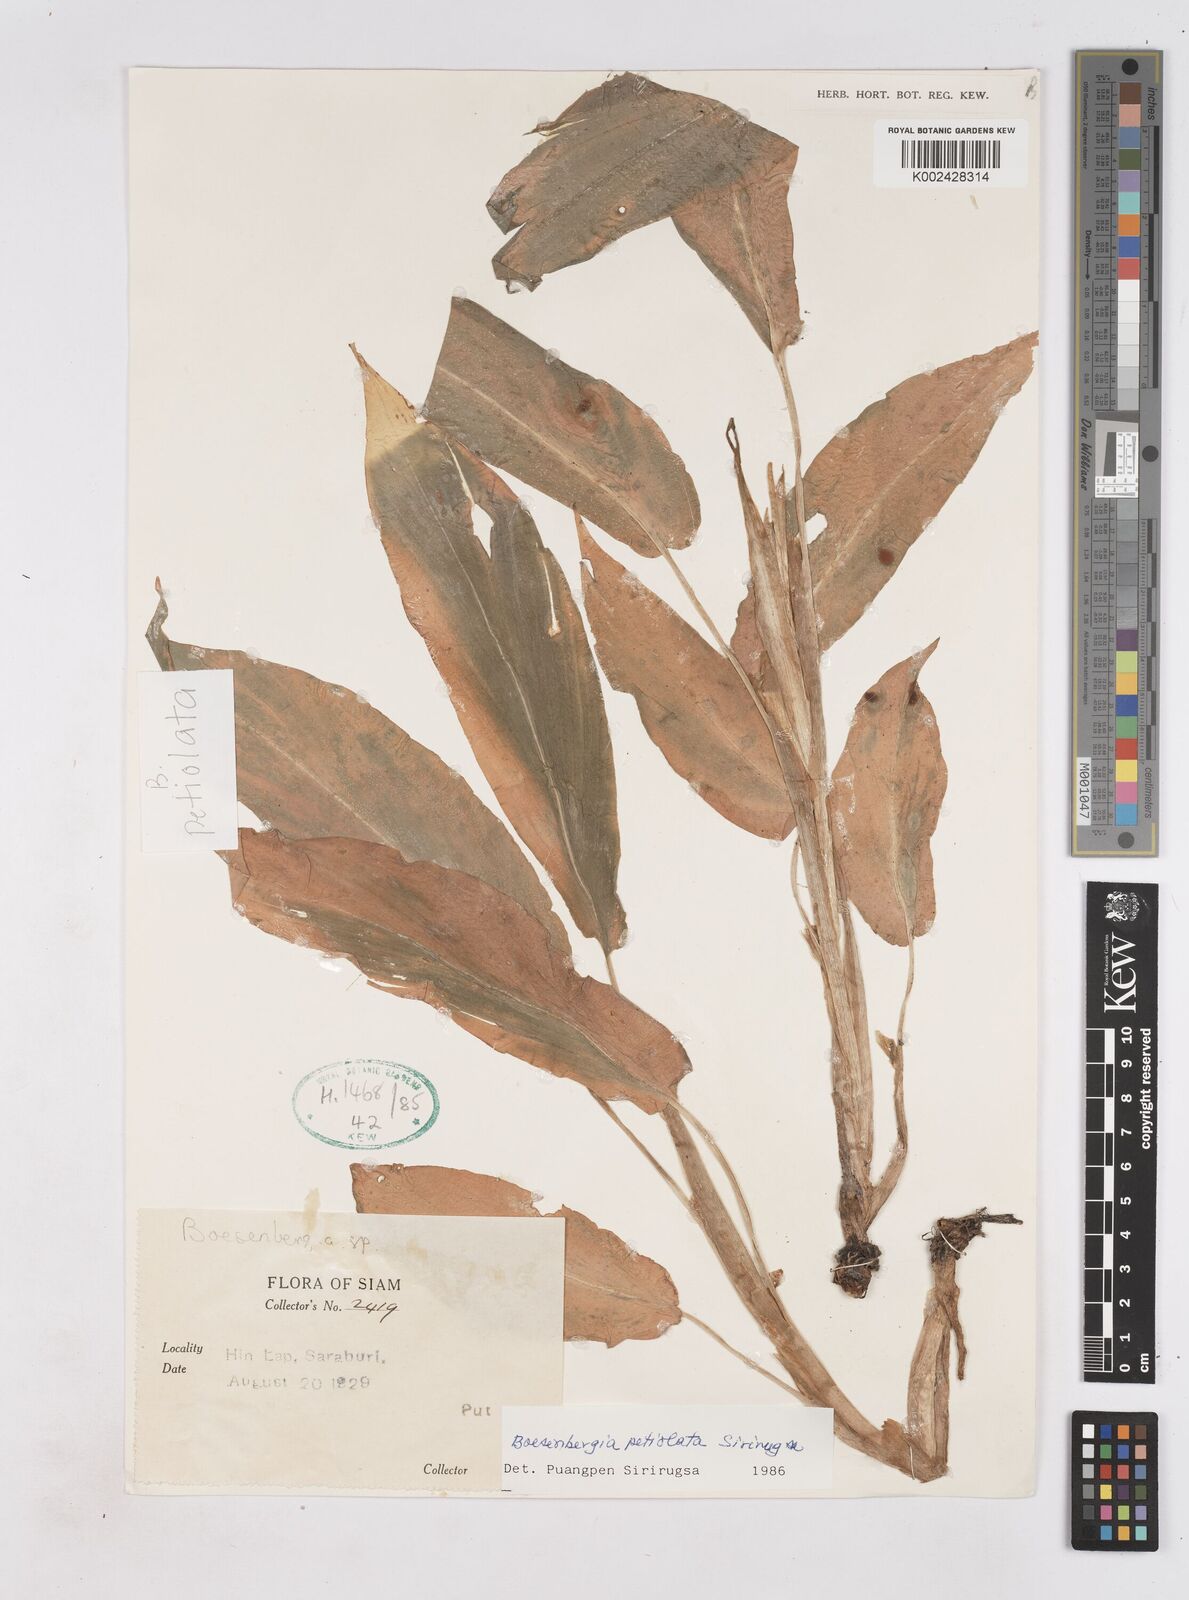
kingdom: Plantae
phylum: Tracheophyta
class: Liliopsida
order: Zingiberales
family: Zingiberaceae
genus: Boesenbergia
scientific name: Boesenbergia petiolata
